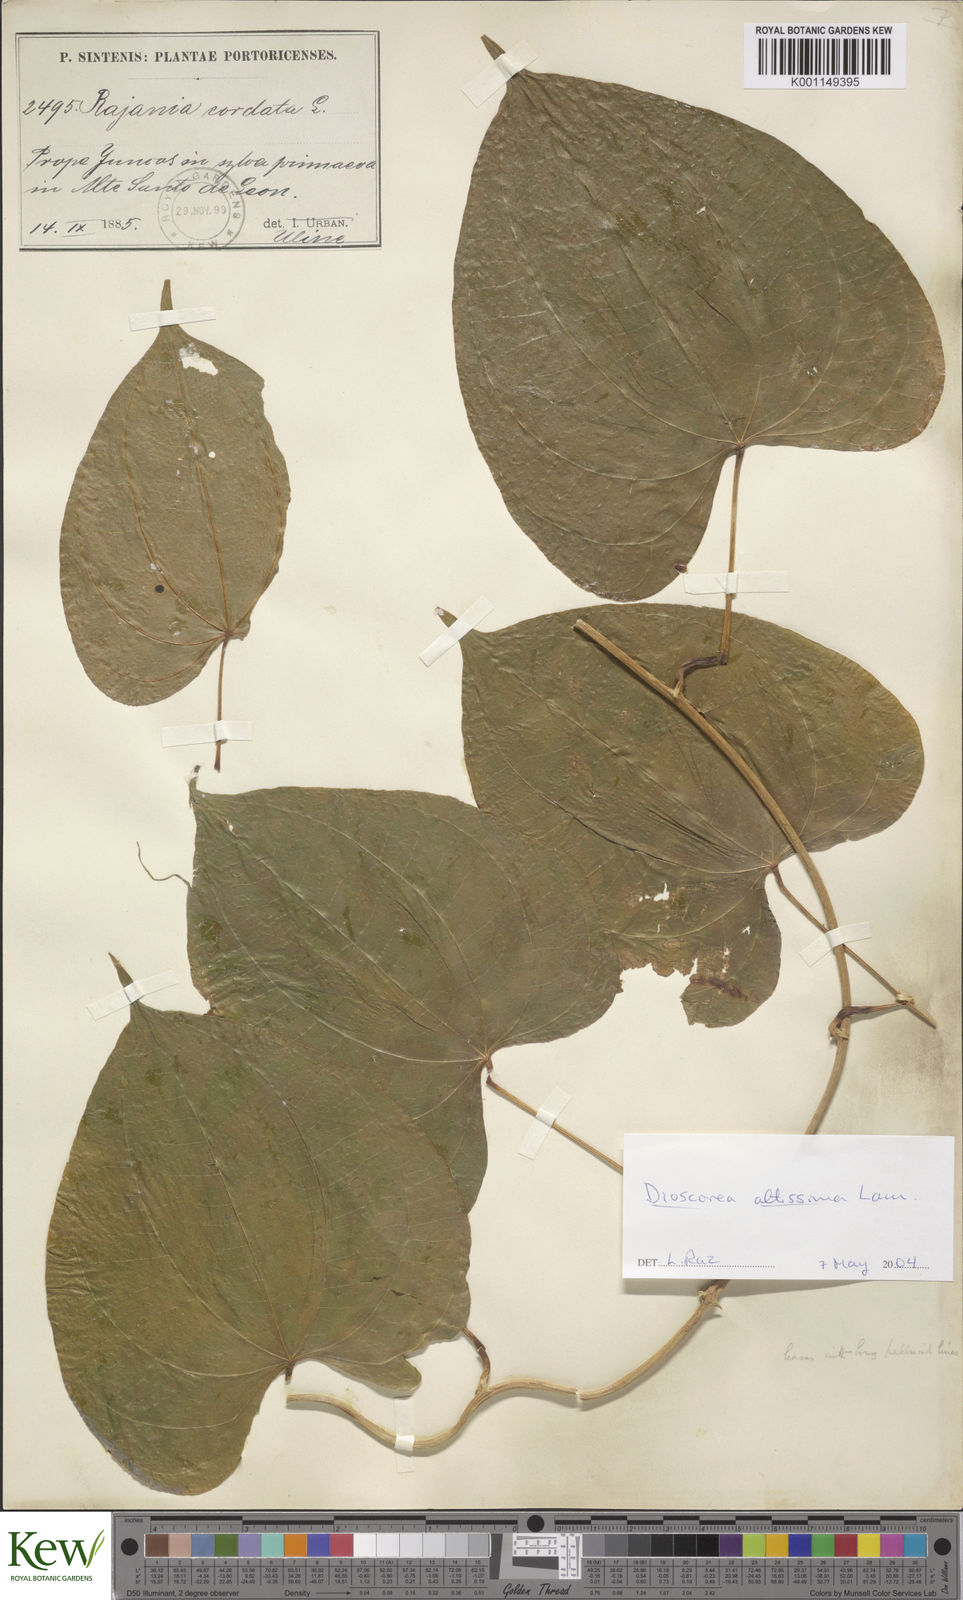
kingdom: Plantae
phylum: Tracheophyta
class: Liliopsida
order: Dioscoreales
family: Dioscoreaceae
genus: Dioscorea
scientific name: Dioscorea cayenensis
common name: Attoto yam
